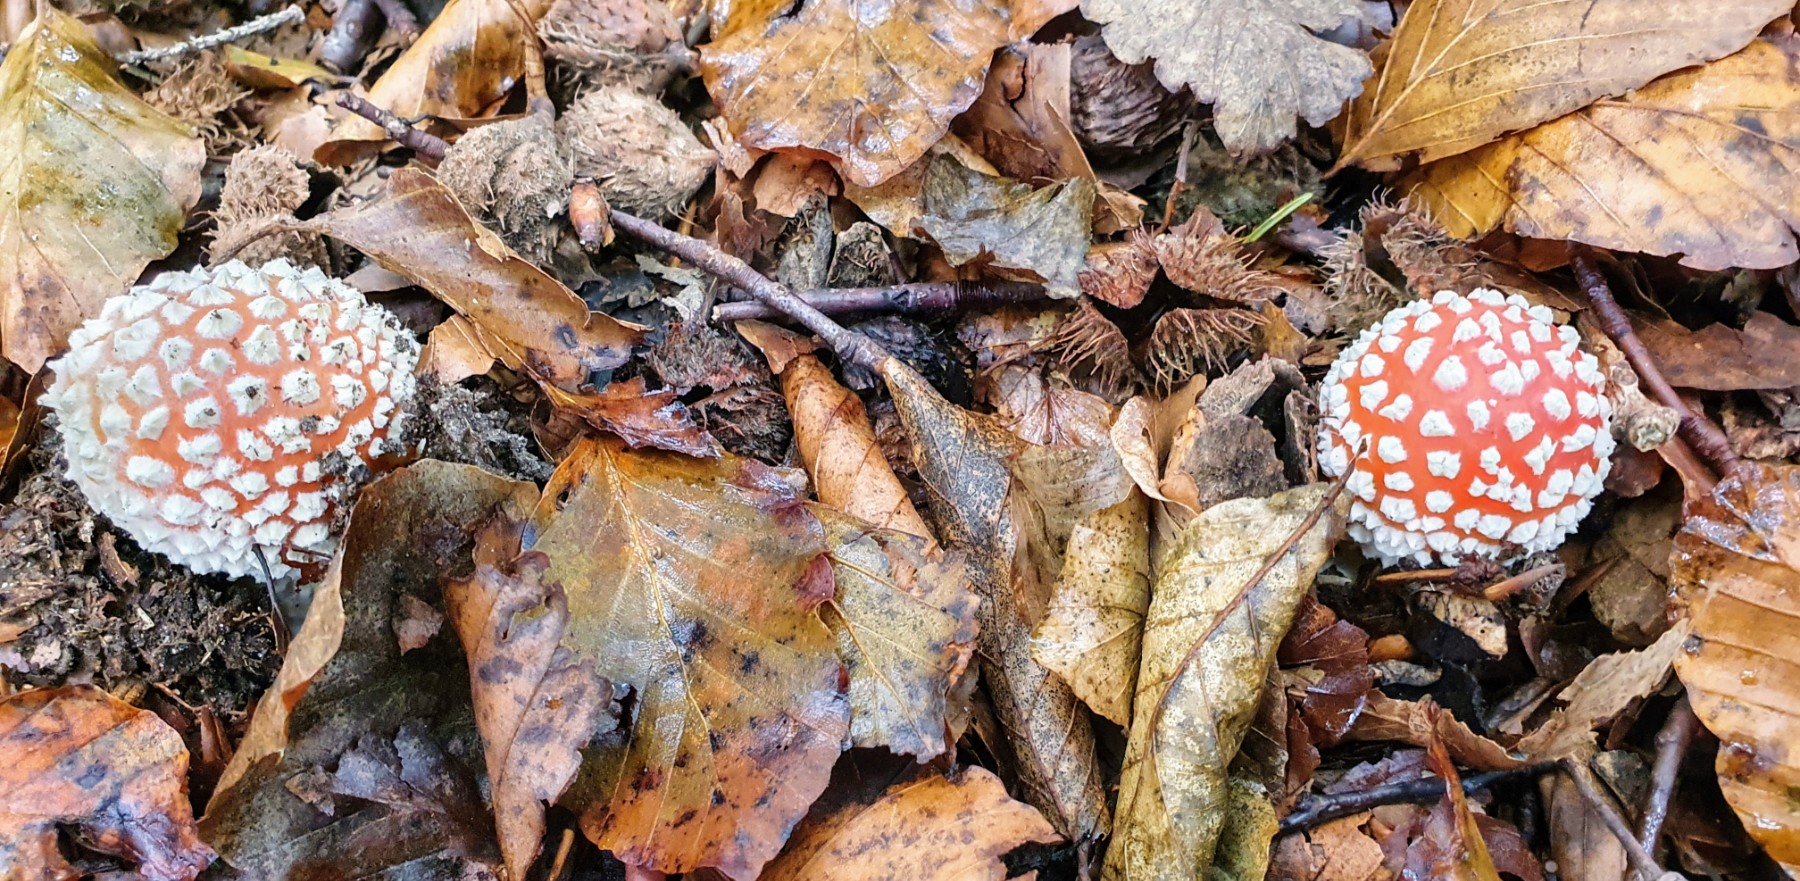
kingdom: Fungi
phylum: Basidiomycota
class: Agaricomycetes
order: Agaricales
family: Amanitaceae
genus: Amanita
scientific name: Amanita muscaria
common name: rød fluesvamp
